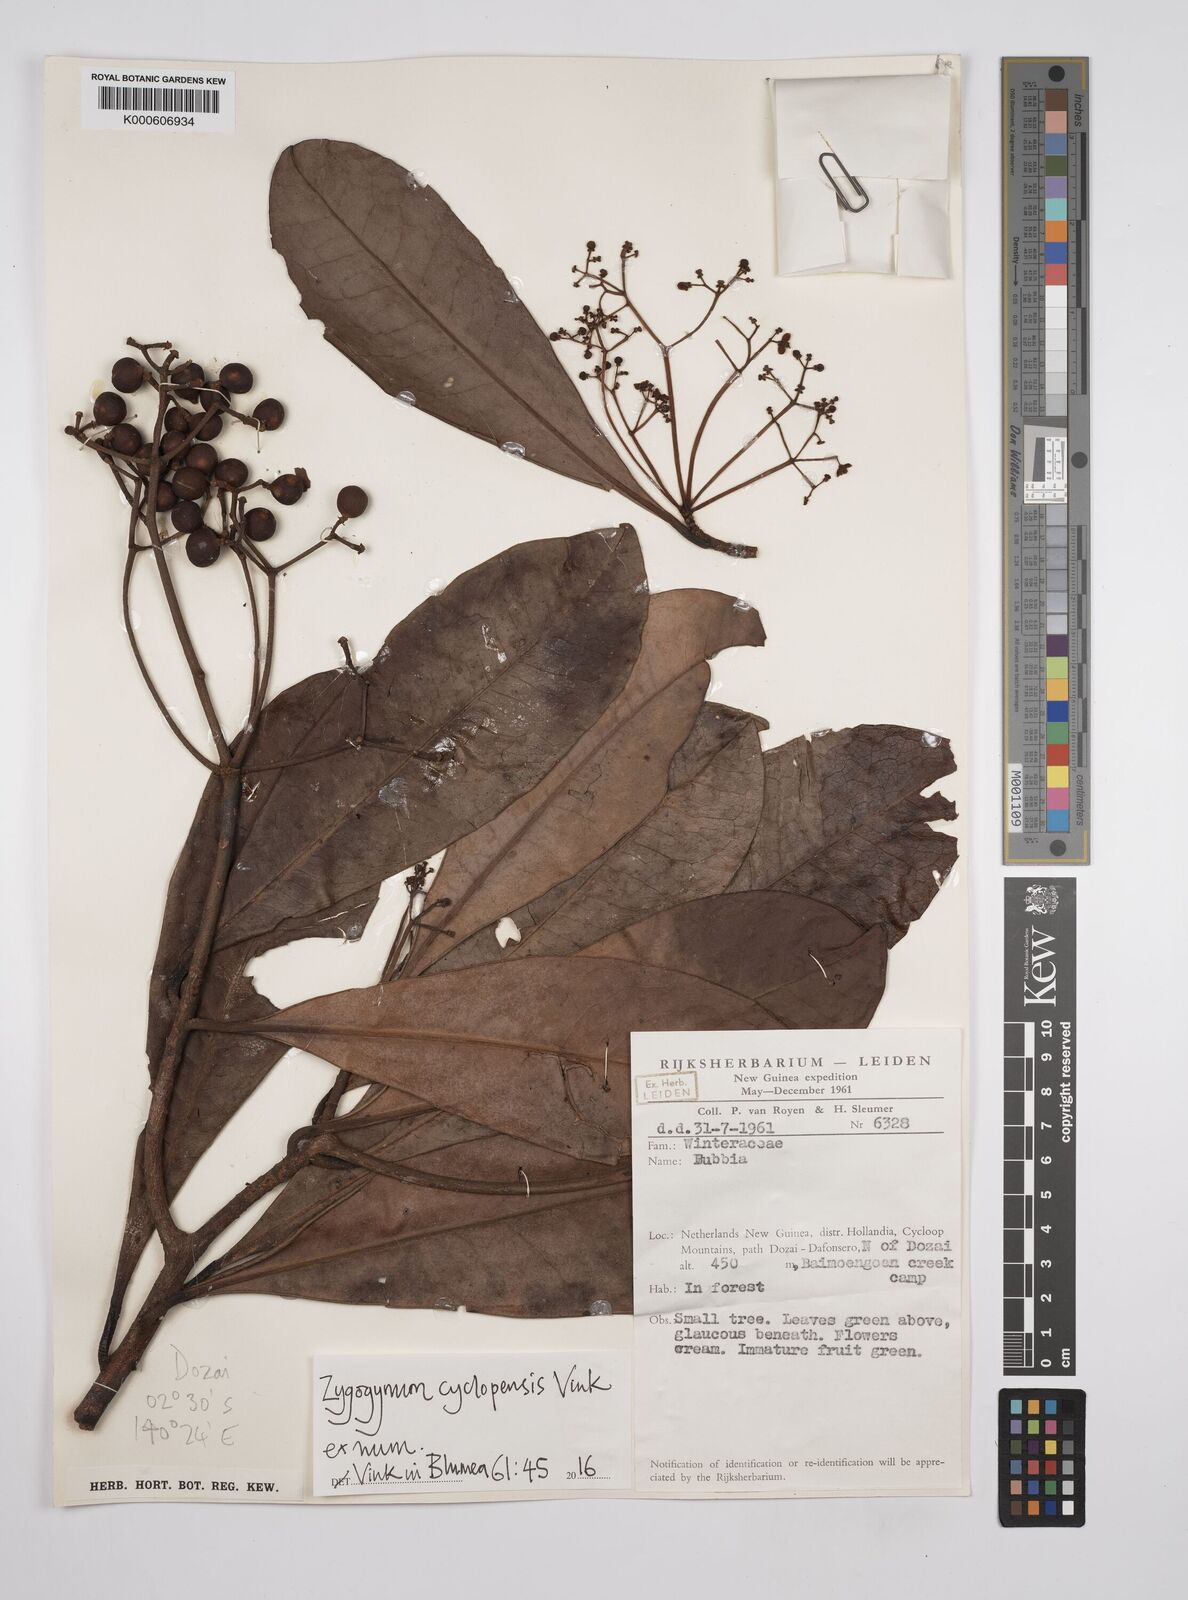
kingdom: Plantae
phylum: Tracheophyta
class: Magnoliopsida
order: Canellales
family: Winteraceae
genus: Zygogynum
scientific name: Zygogynum cyclopensis
